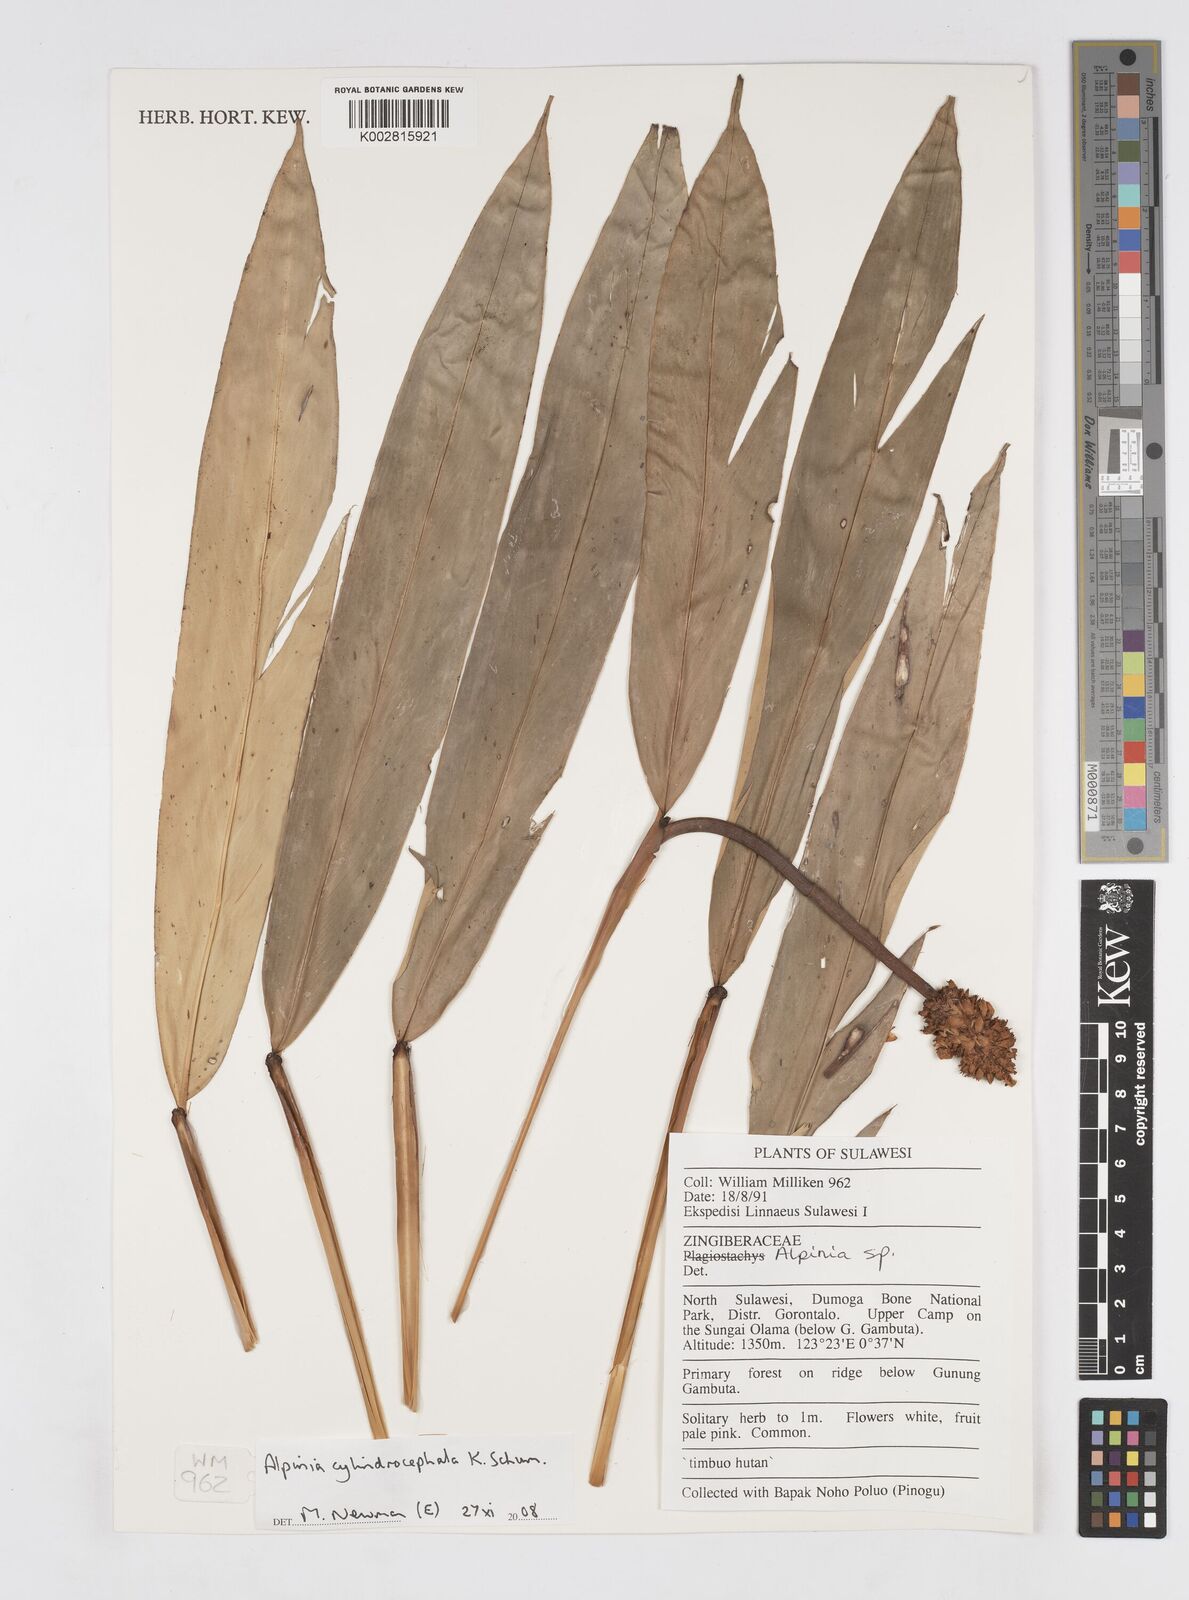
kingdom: Plantae
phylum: Tracheophyta
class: Liliopsida
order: Zingiberales
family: Zingiberaceae
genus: Alpinia
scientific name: Alpinia cylindrocephala
